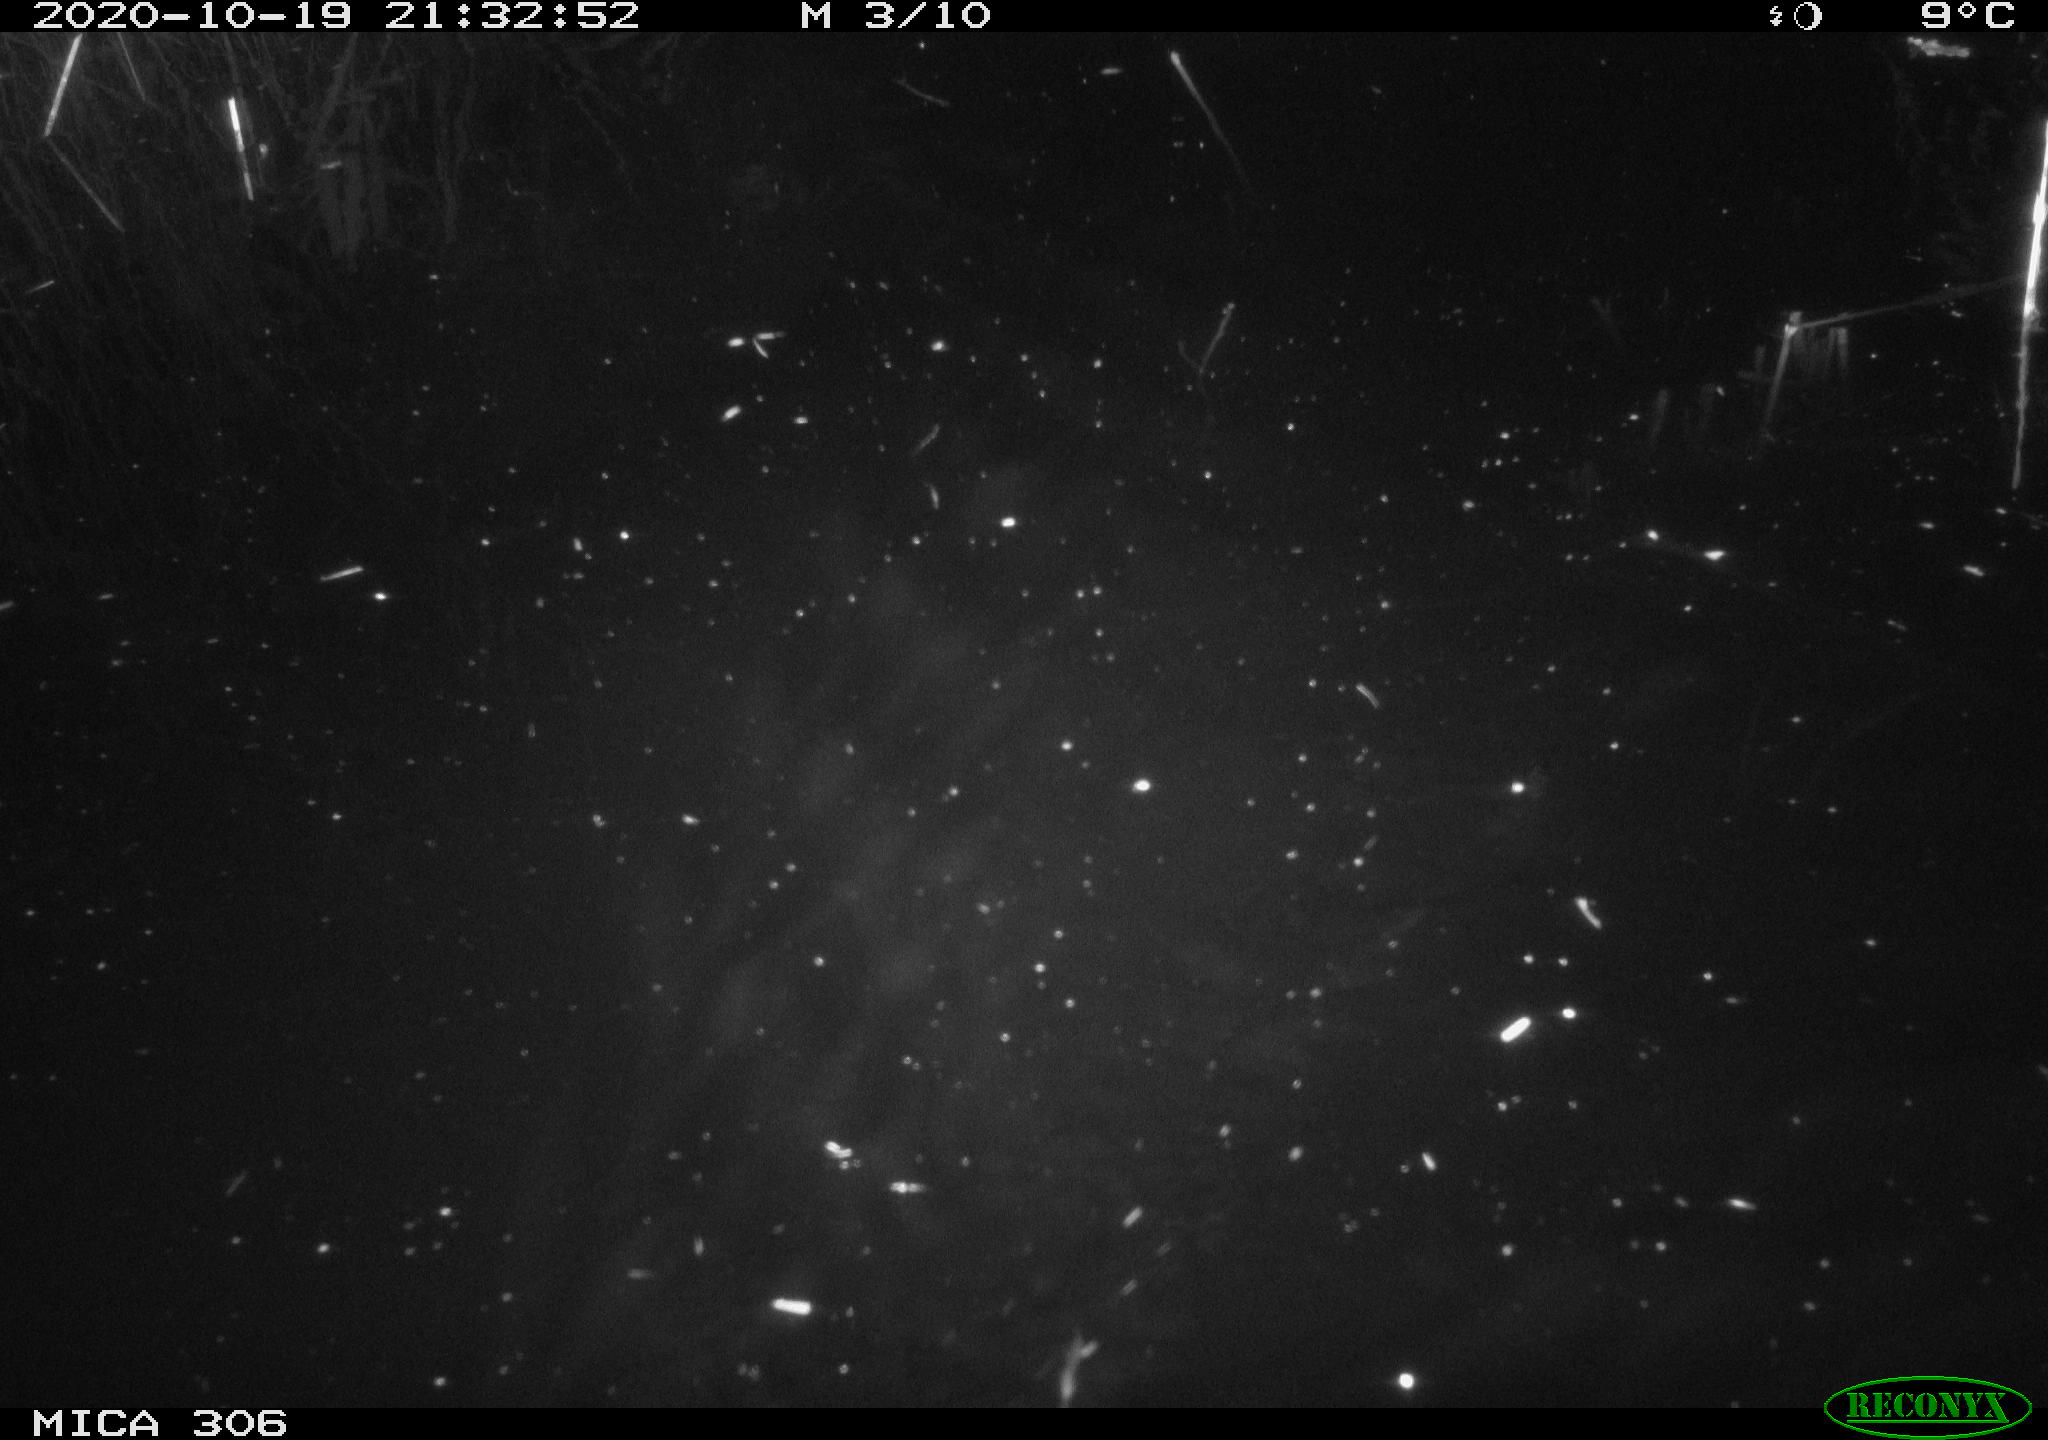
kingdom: Animalia
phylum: Chordata
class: Mammalia
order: Rodentia
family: Muridae
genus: Rattus
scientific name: Rattus norvegicus
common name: Brown rat
